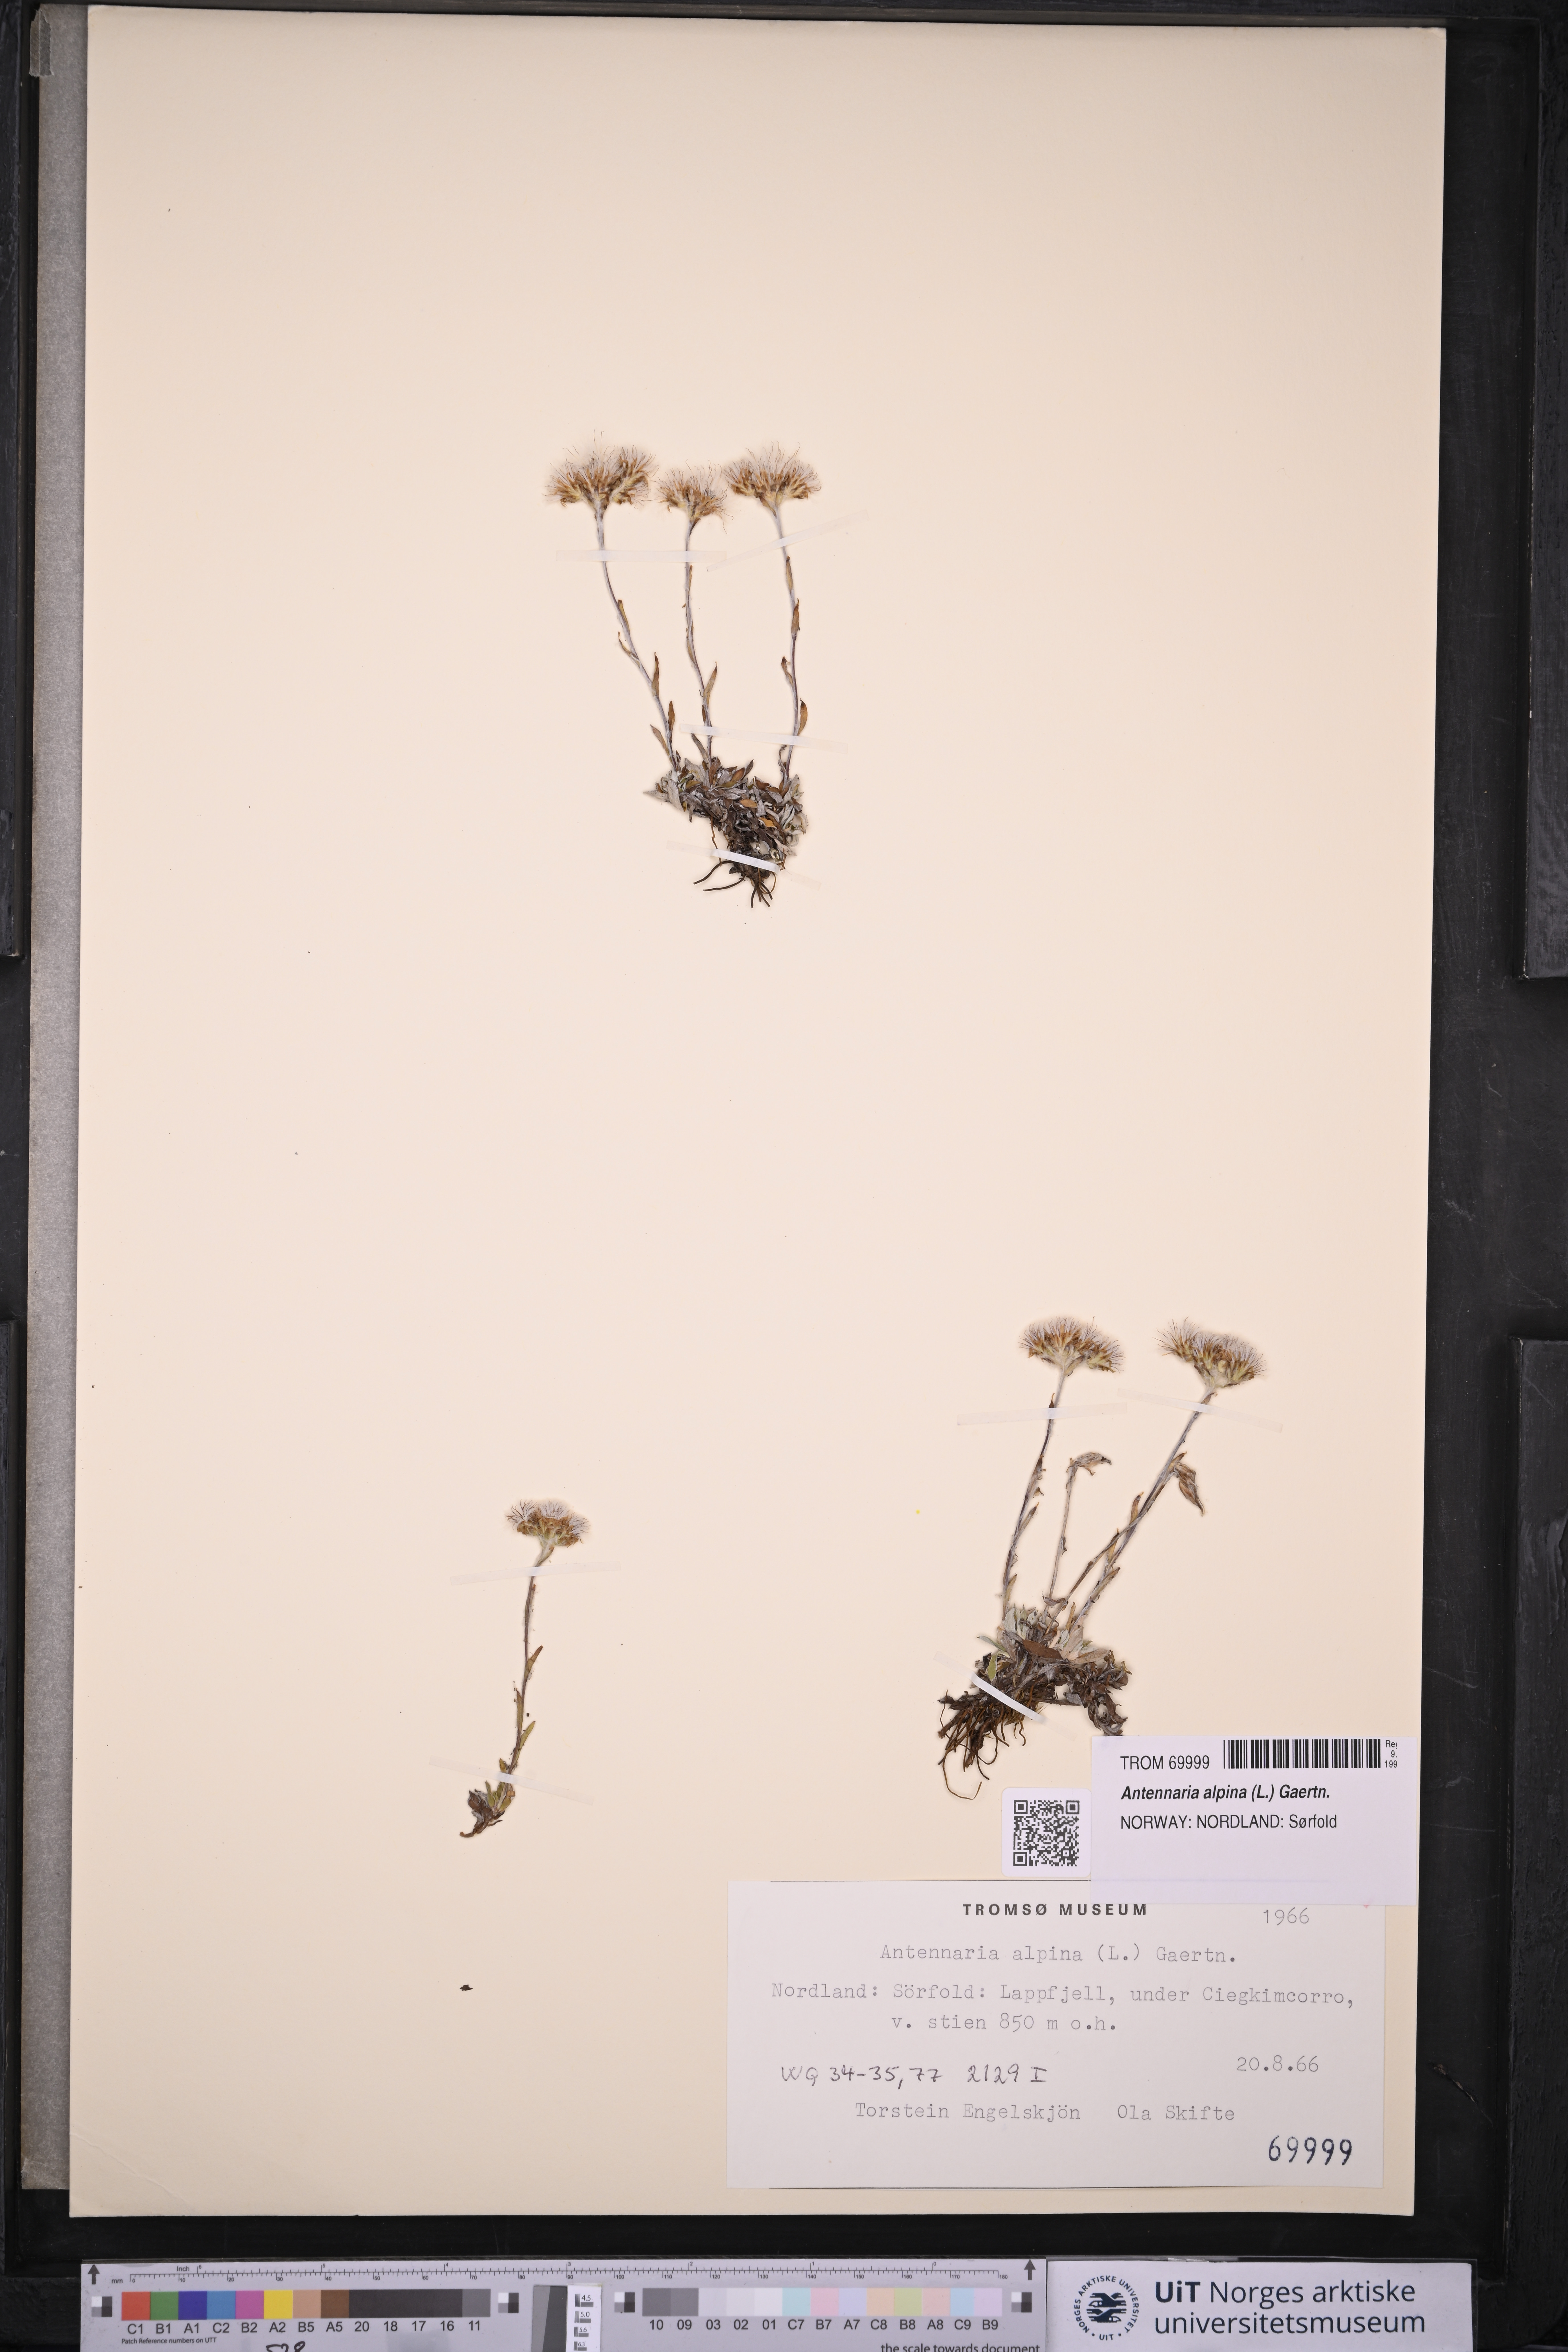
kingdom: Plantae
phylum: Tracheophyta
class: Magnoliopsida
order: Asterales
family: Asteraceae
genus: Antennaria
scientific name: Antennaria alpina
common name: Alpine pussytoes
